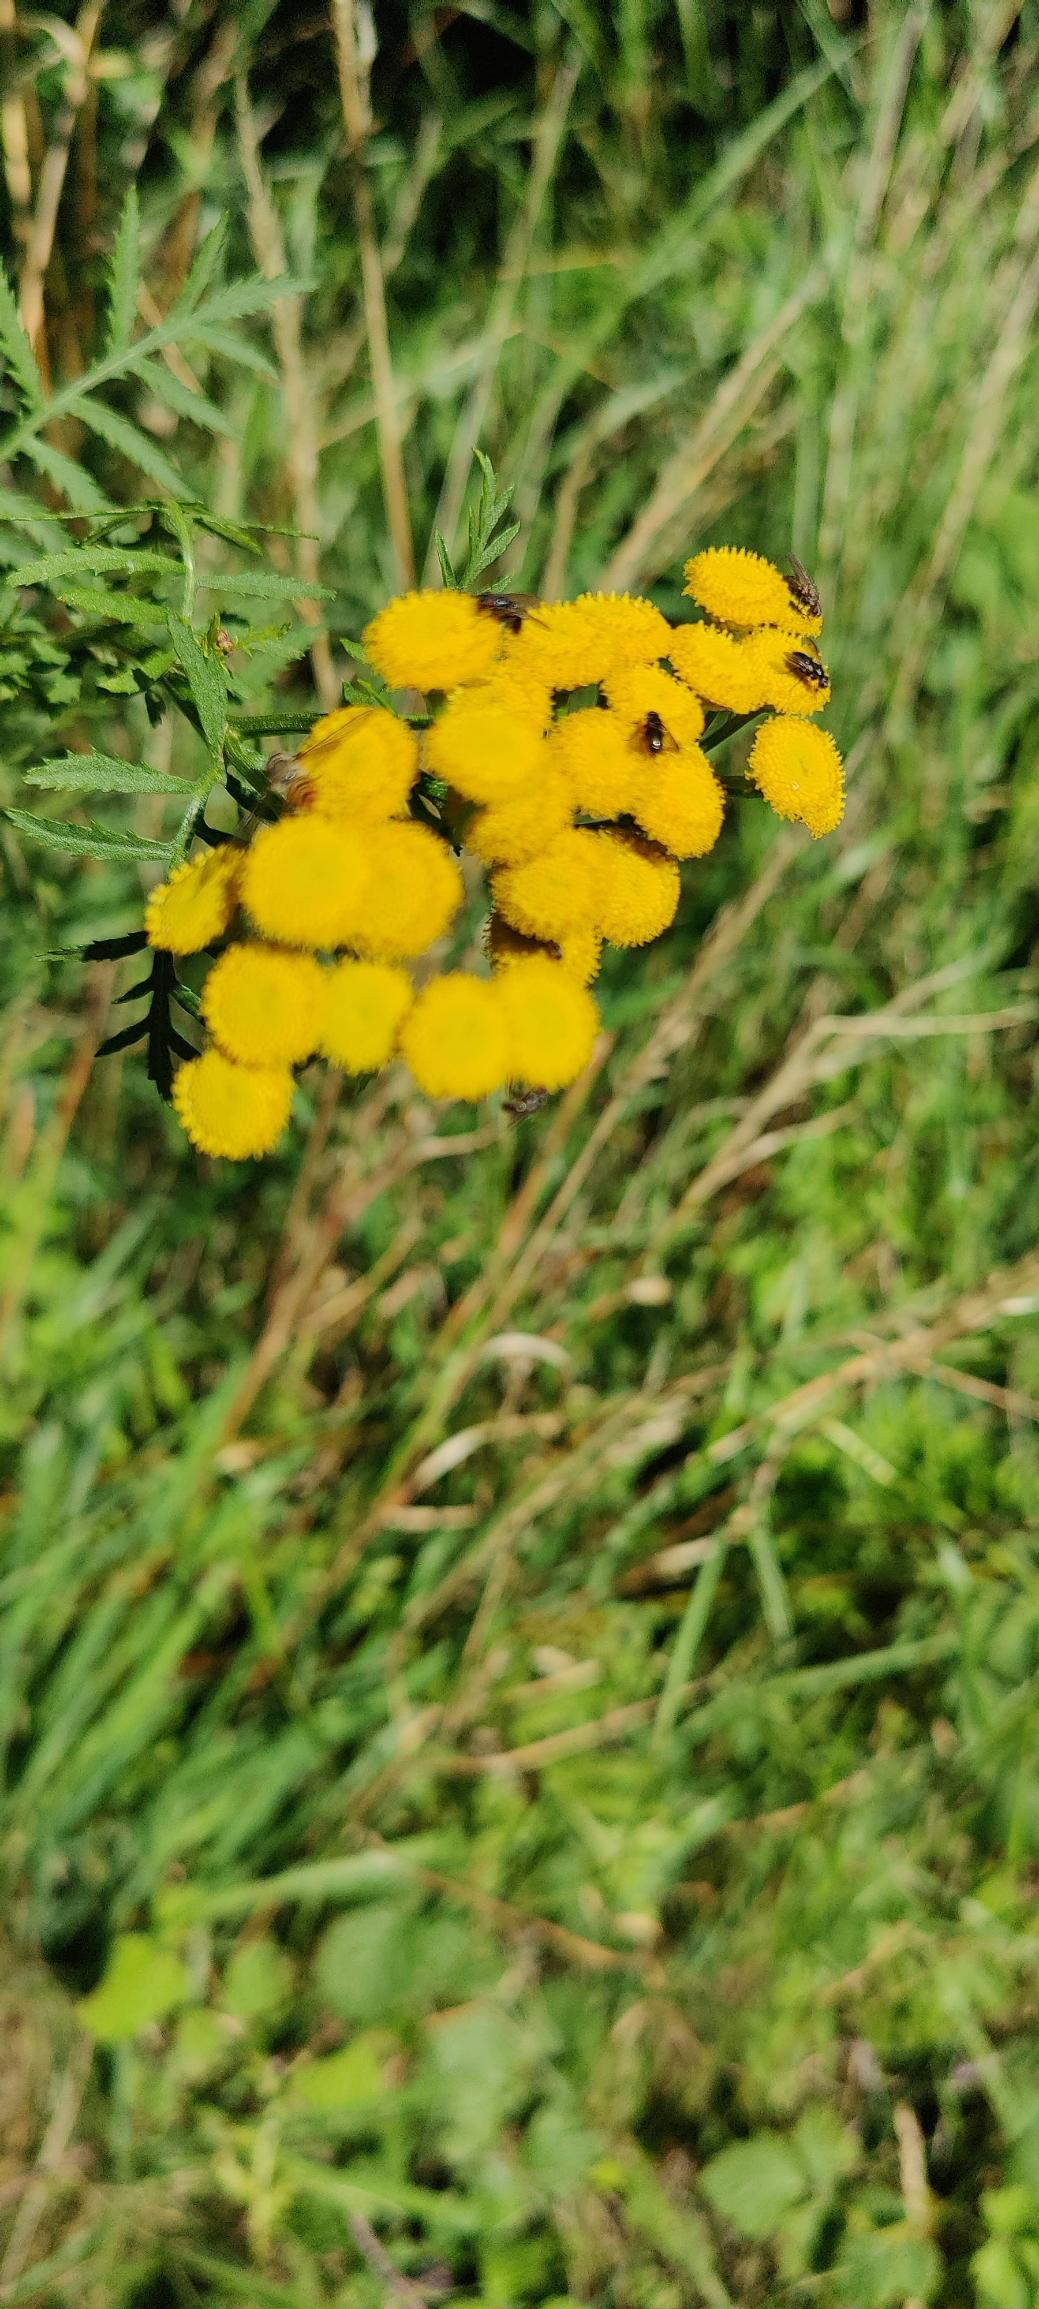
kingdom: Plantae
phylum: Tracheophyta
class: Magnoliopsida
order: Asterales
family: Asteraceae
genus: Tanacetum
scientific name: Tanacetum vulgare
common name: Rejnfan
